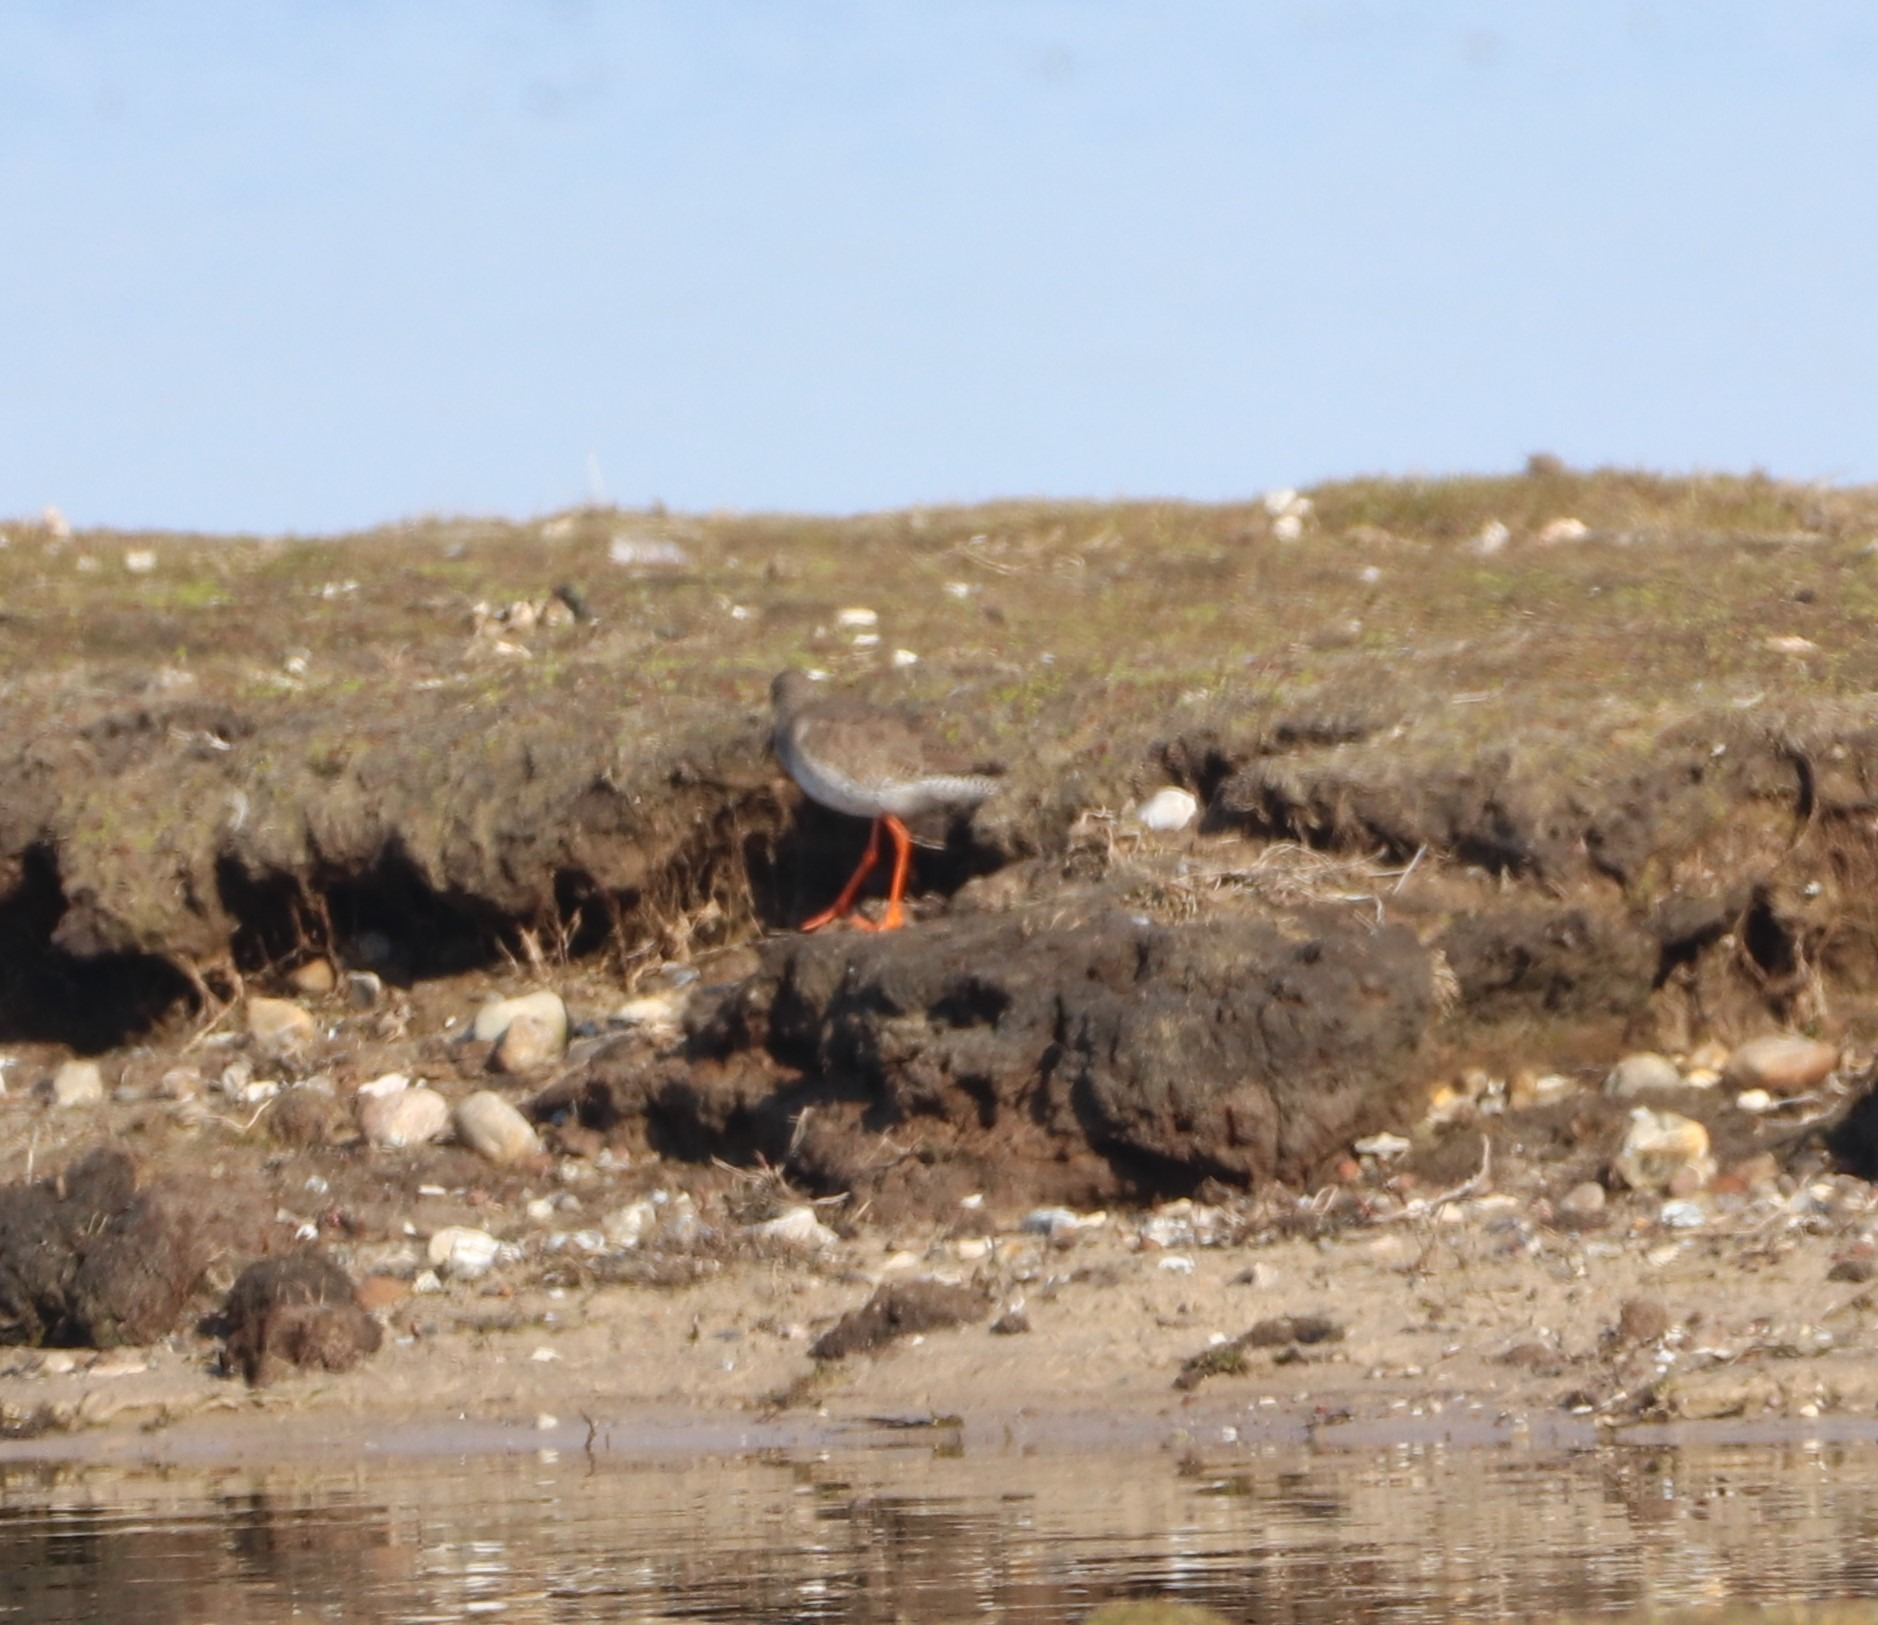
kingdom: Animalia
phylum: Chordata
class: Aves
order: Charadriiformes
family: Scolopacidae
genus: Tringa
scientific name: Tringa totanus
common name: Rødben
